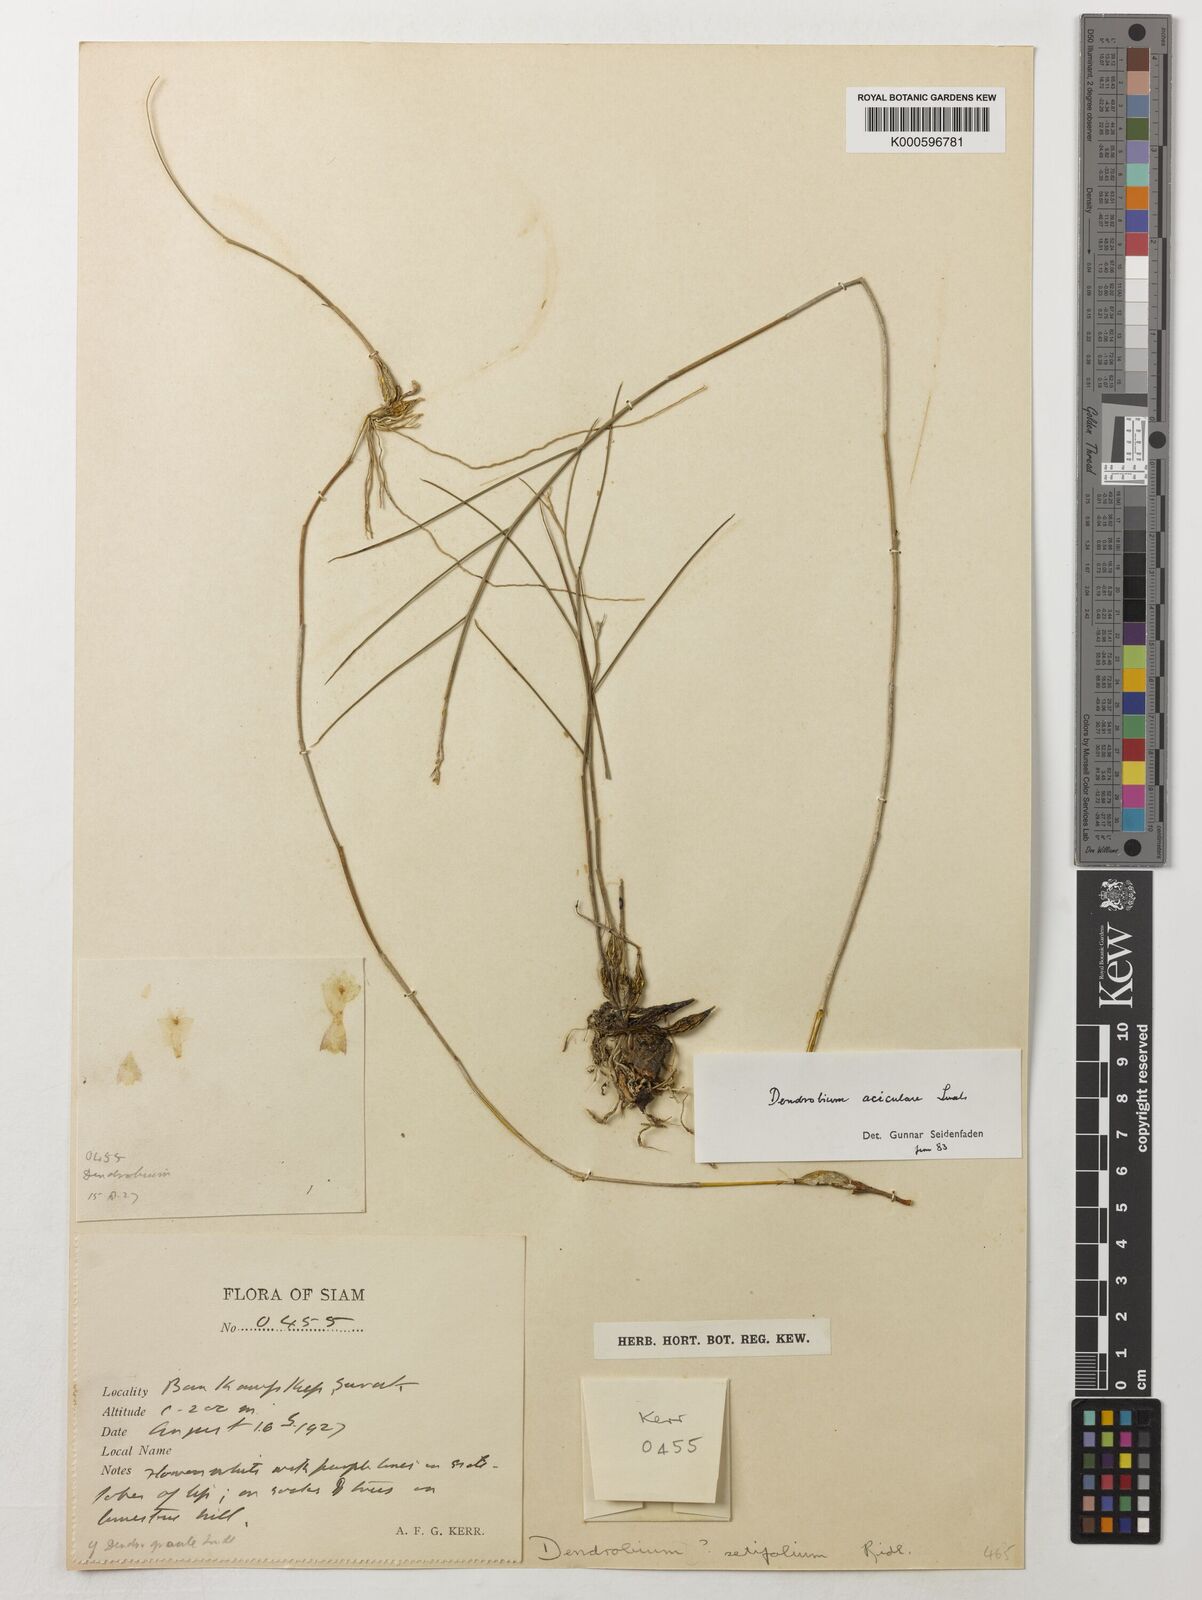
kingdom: Plantae
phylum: Tracheophyta
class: Liliopsida
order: Asparagales
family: Orchidaceae
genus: Dendrobium
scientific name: Dendrobium aciculare
